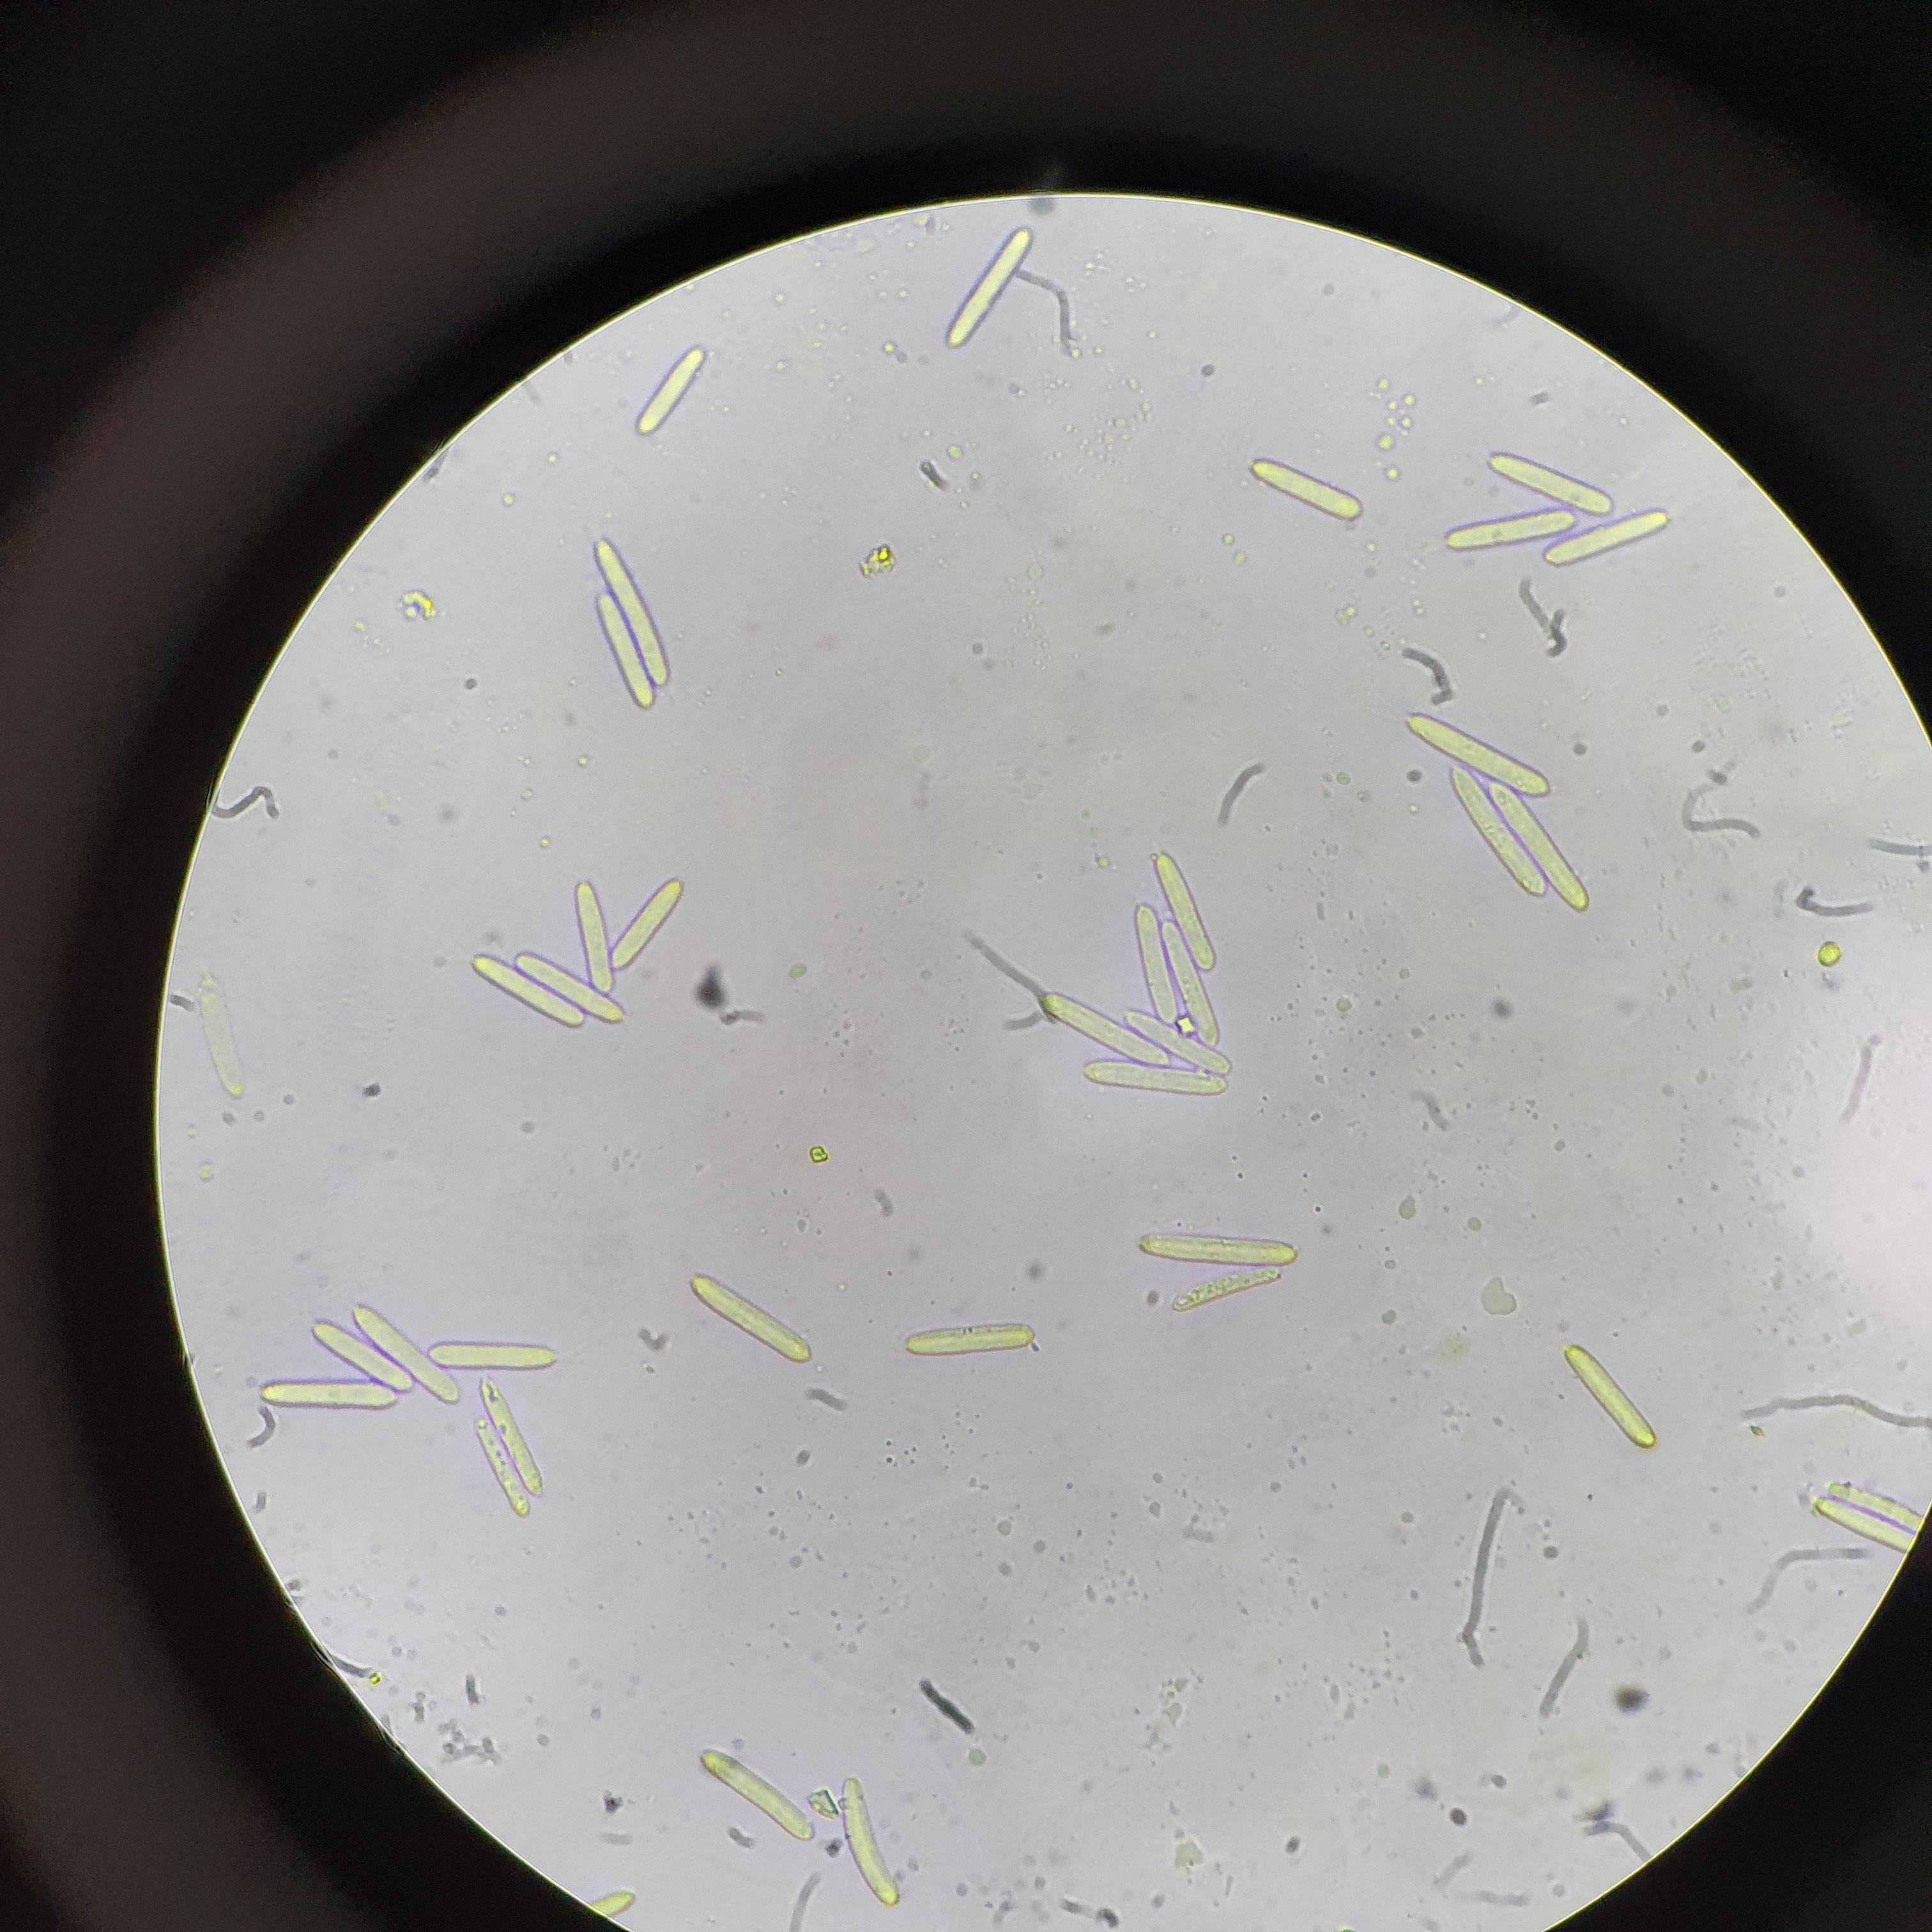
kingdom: Fungi
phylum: Ascomycota
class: Dothideomycetes
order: Botryosphaeriales
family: Phyllostictaceae
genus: Phyllosticta
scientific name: Phyllosticta
